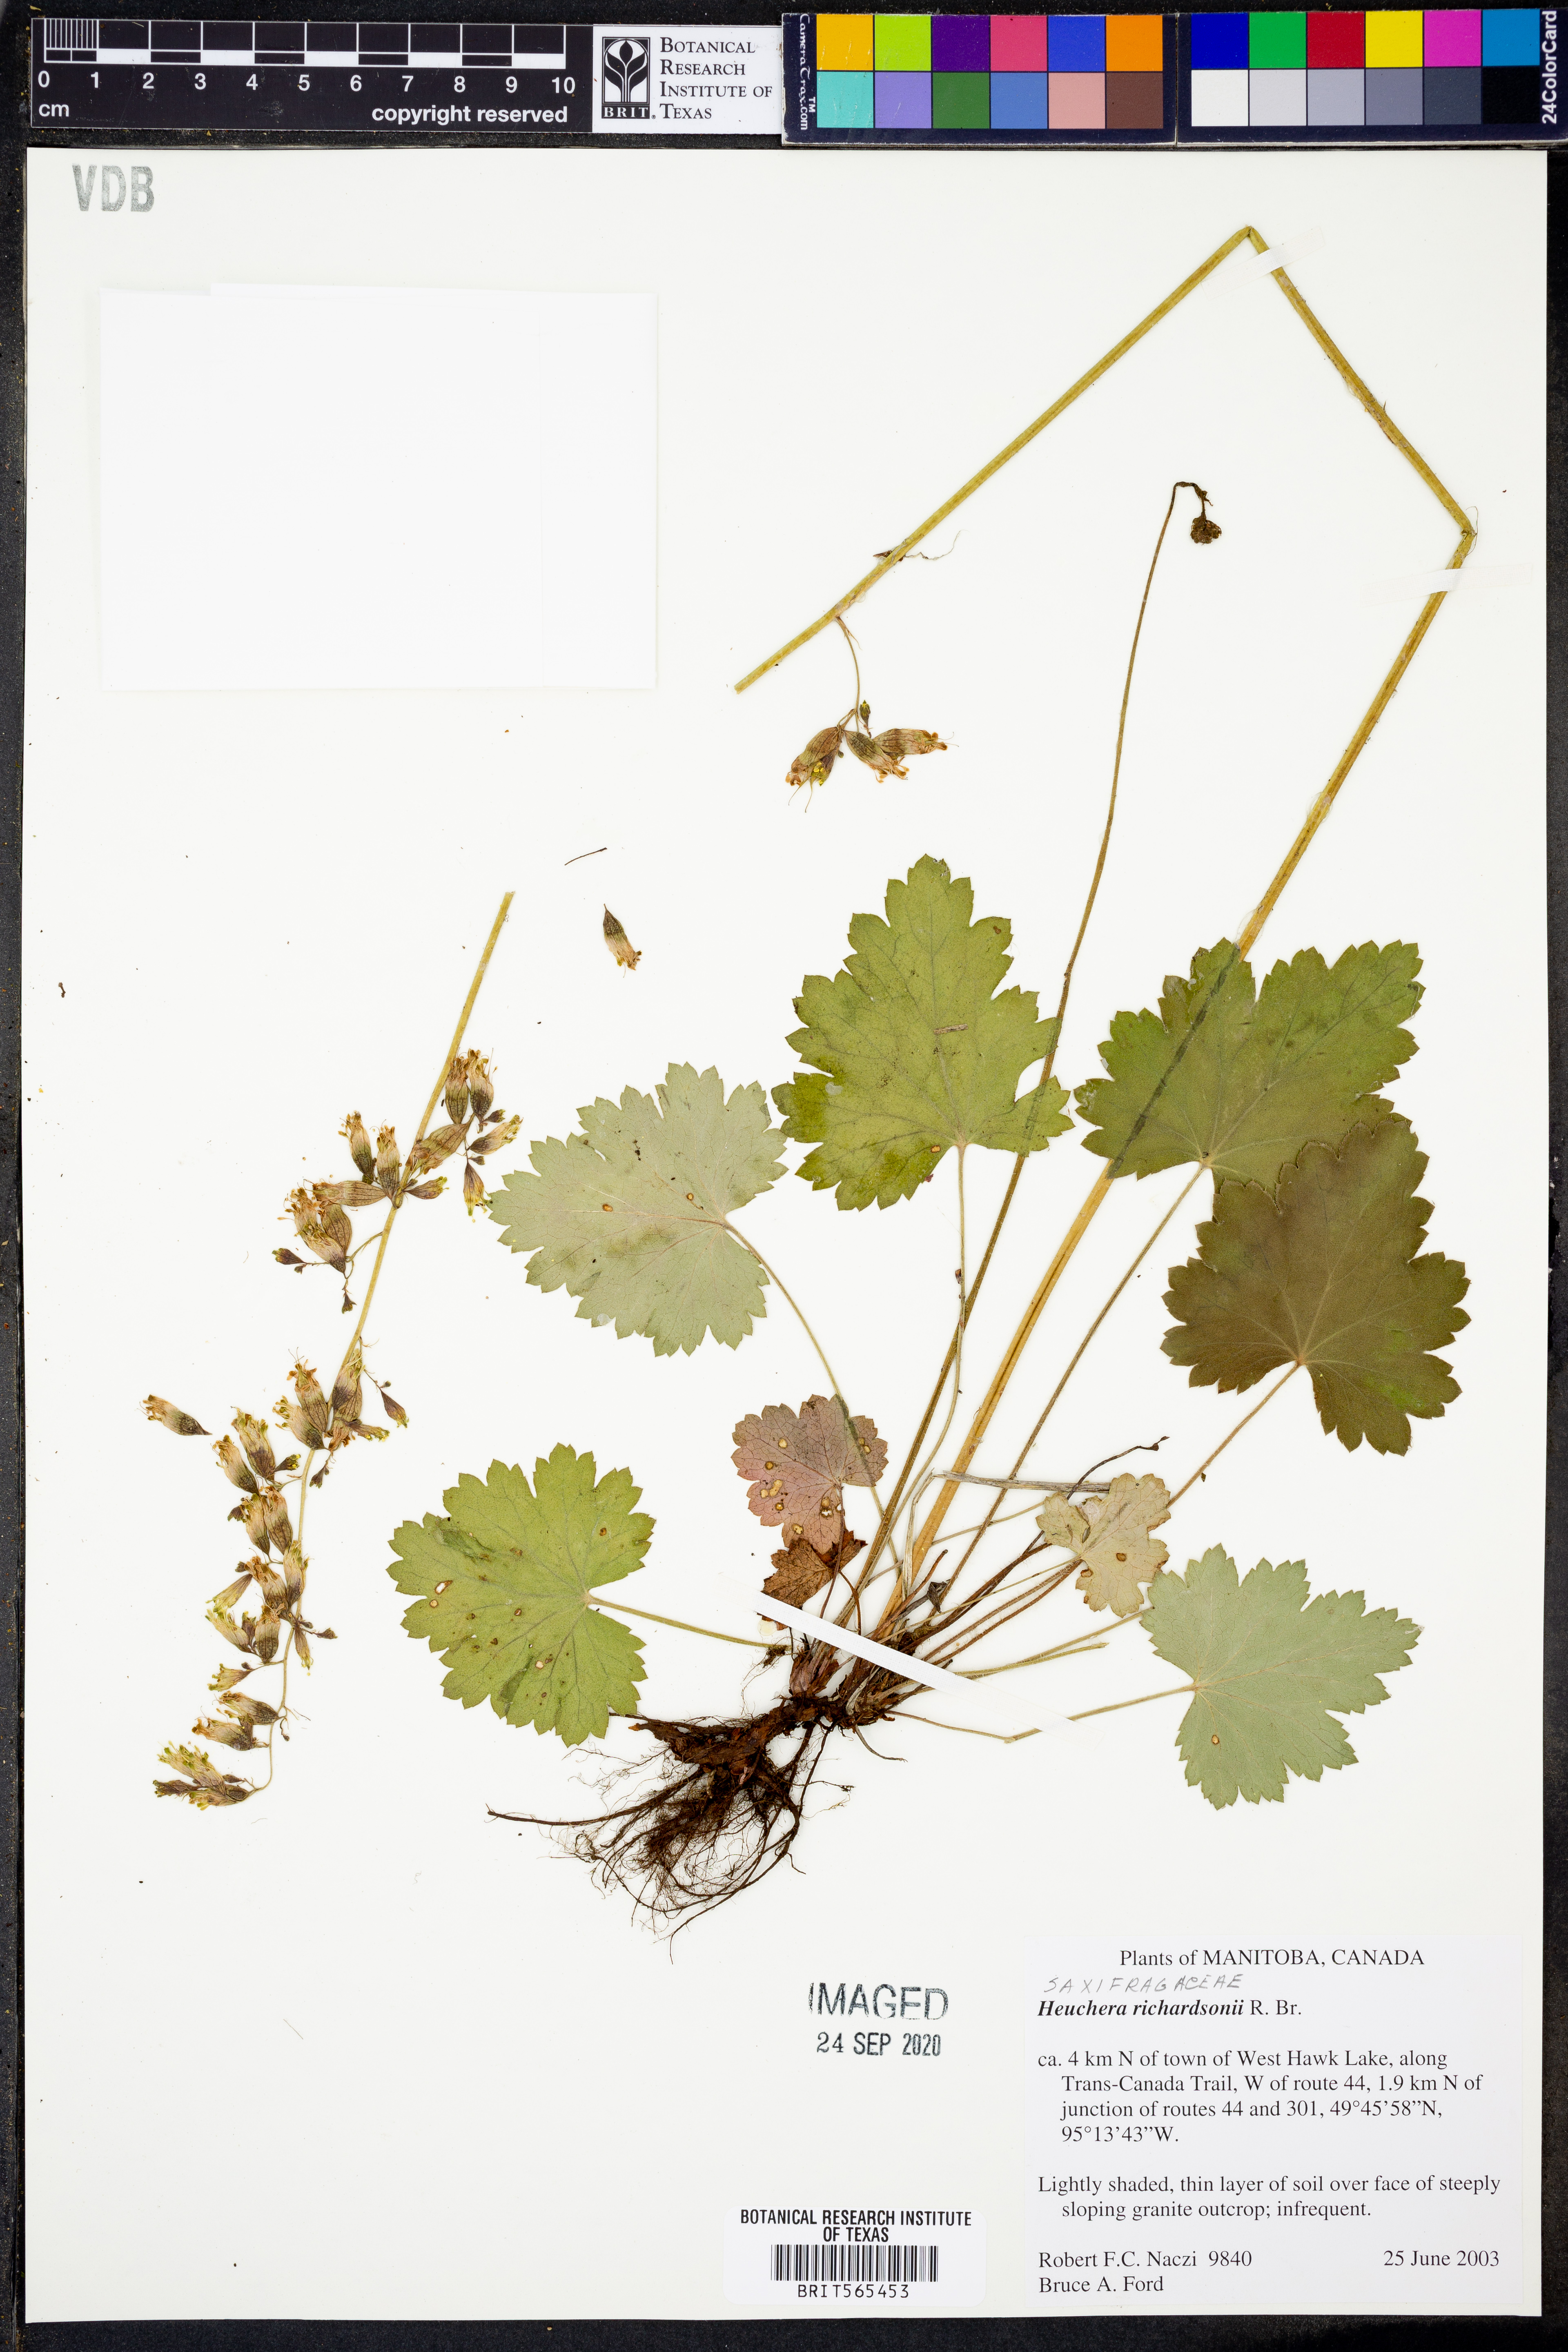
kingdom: Plantae
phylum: Tracheophyta
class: Magnoliopsida
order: Saxifragales
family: Saxifragaceae
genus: Heuchera
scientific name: Heuchera richardsonii
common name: Richardson's alumroot
